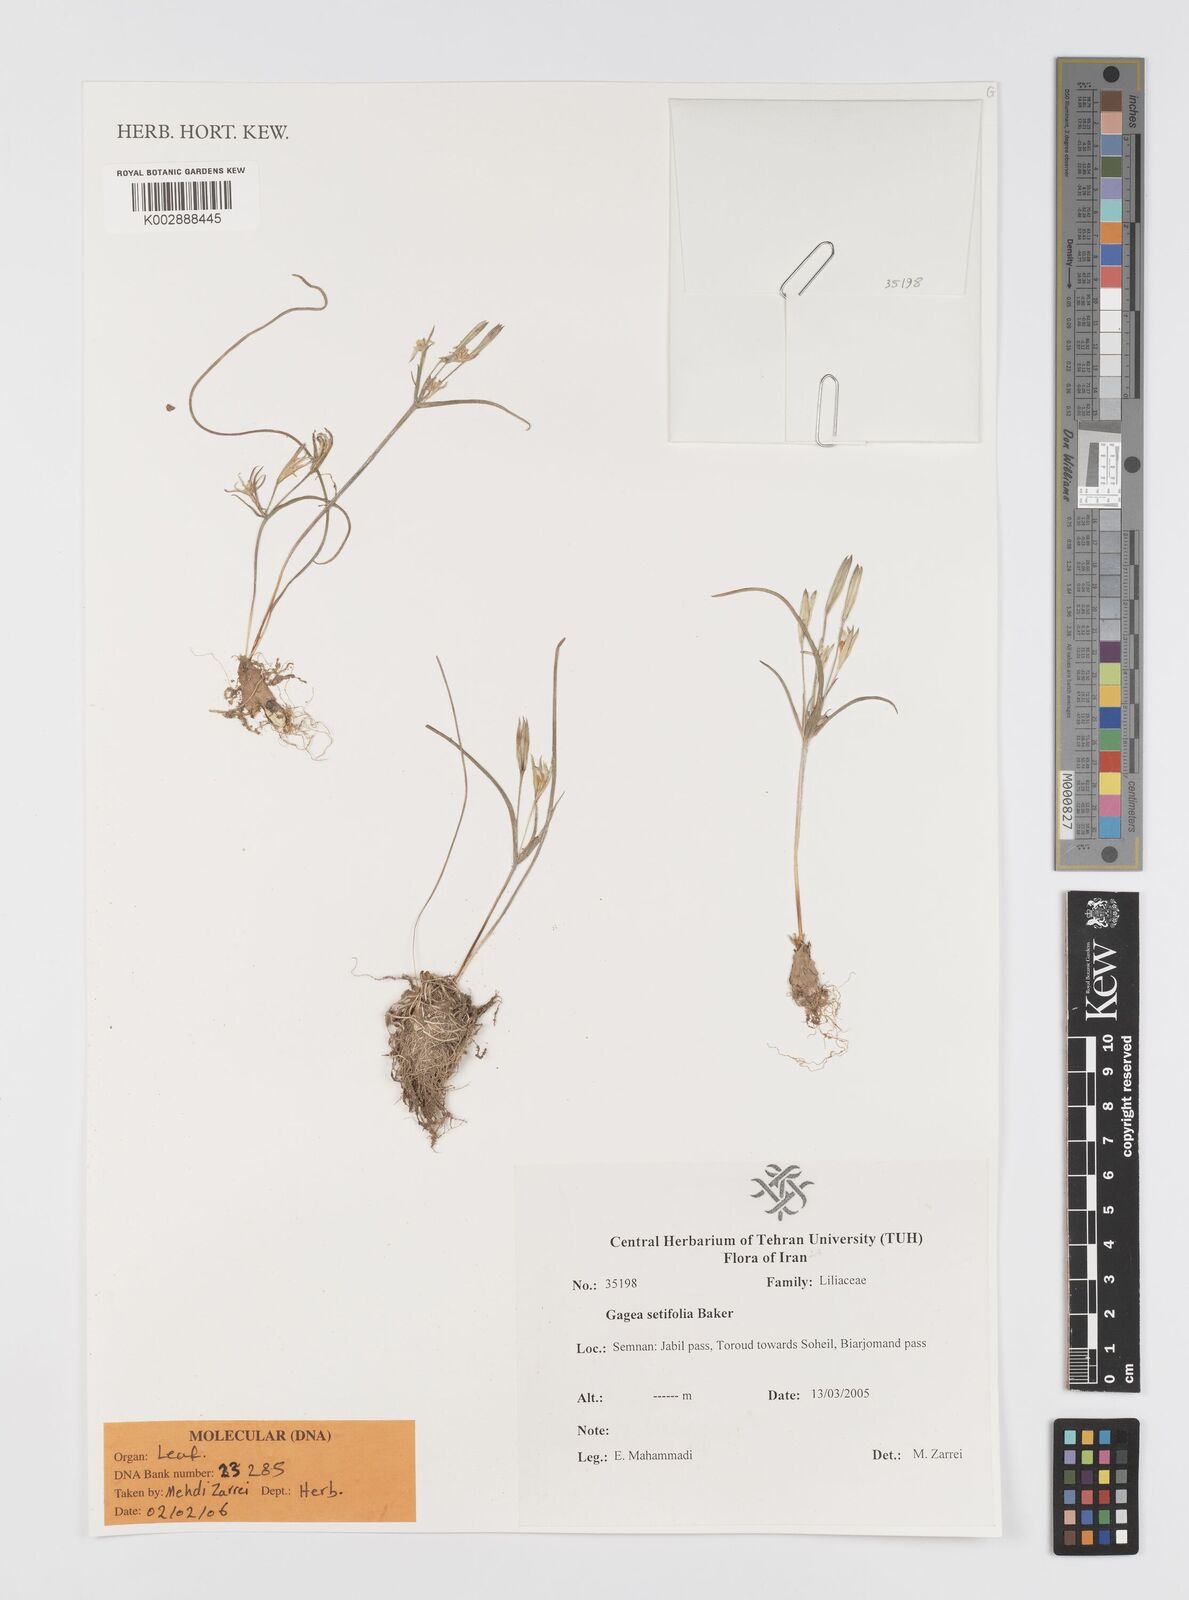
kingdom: Plantae
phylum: Tracheophyta
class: Liliopsida
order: Liliales
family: Liliaceae
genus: Gagea
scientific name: Gagea setifolia
